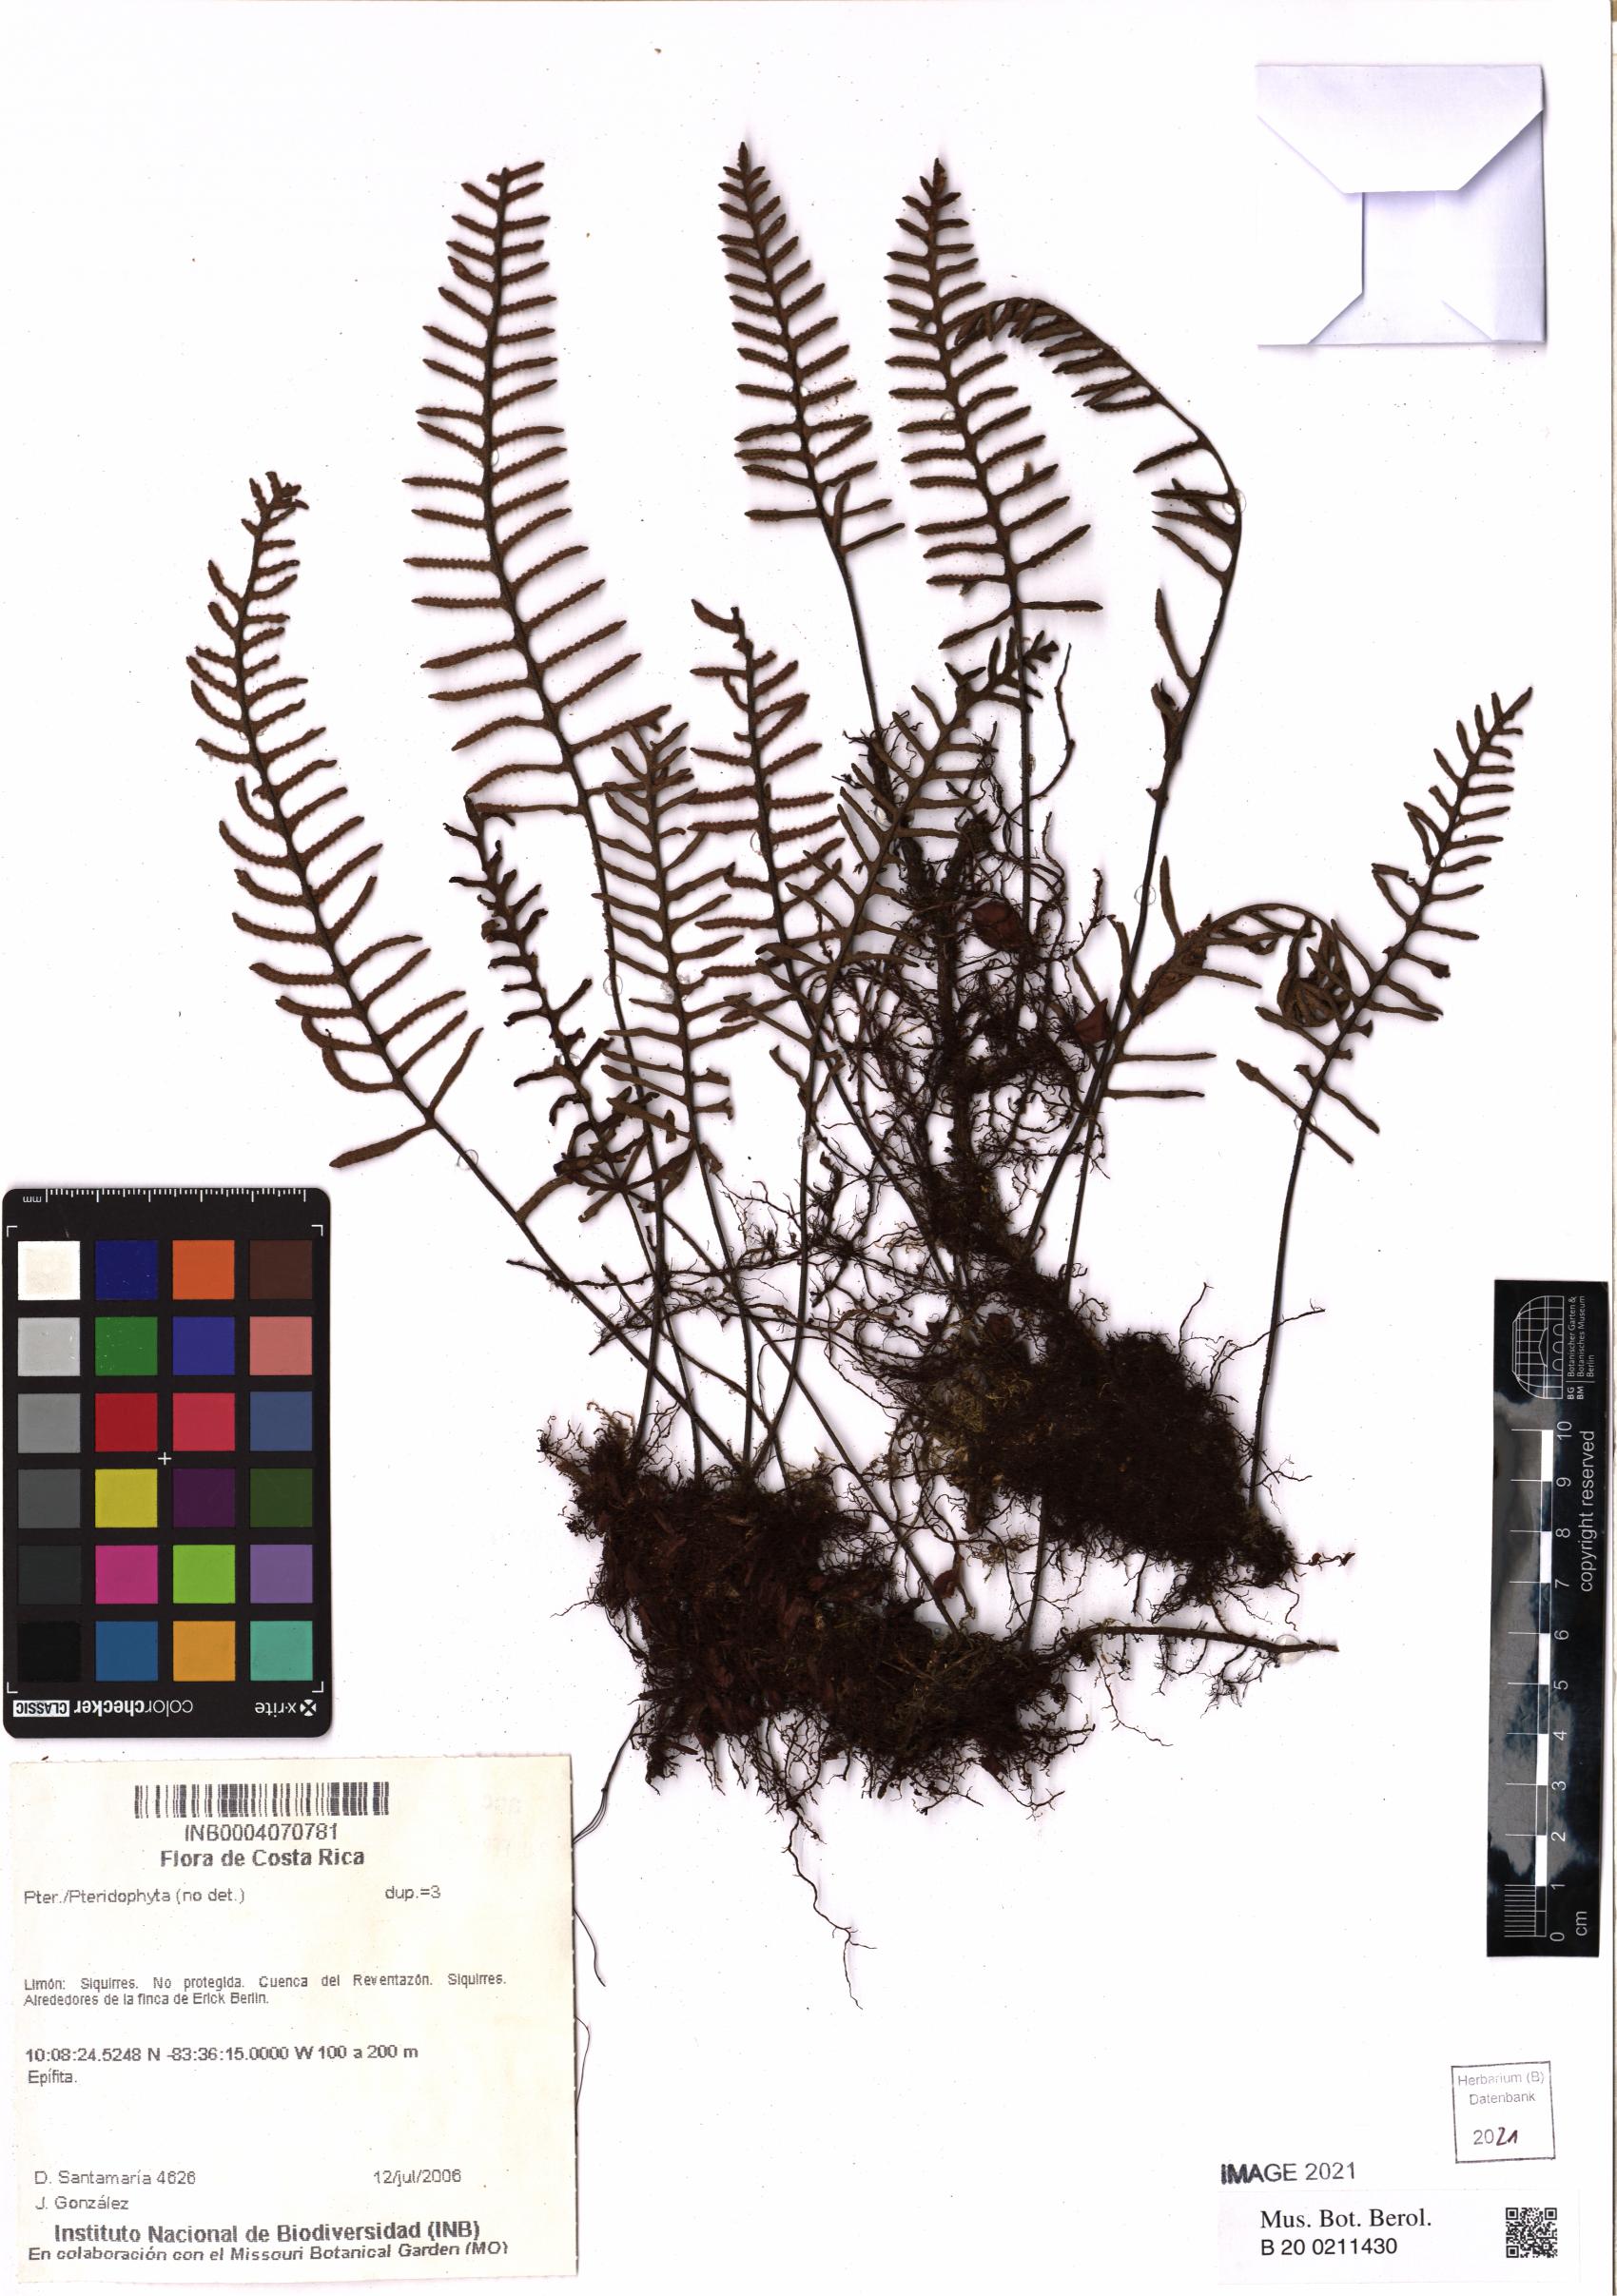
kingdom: Plantae
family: Pteridophyta
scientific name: Pteridophyta
